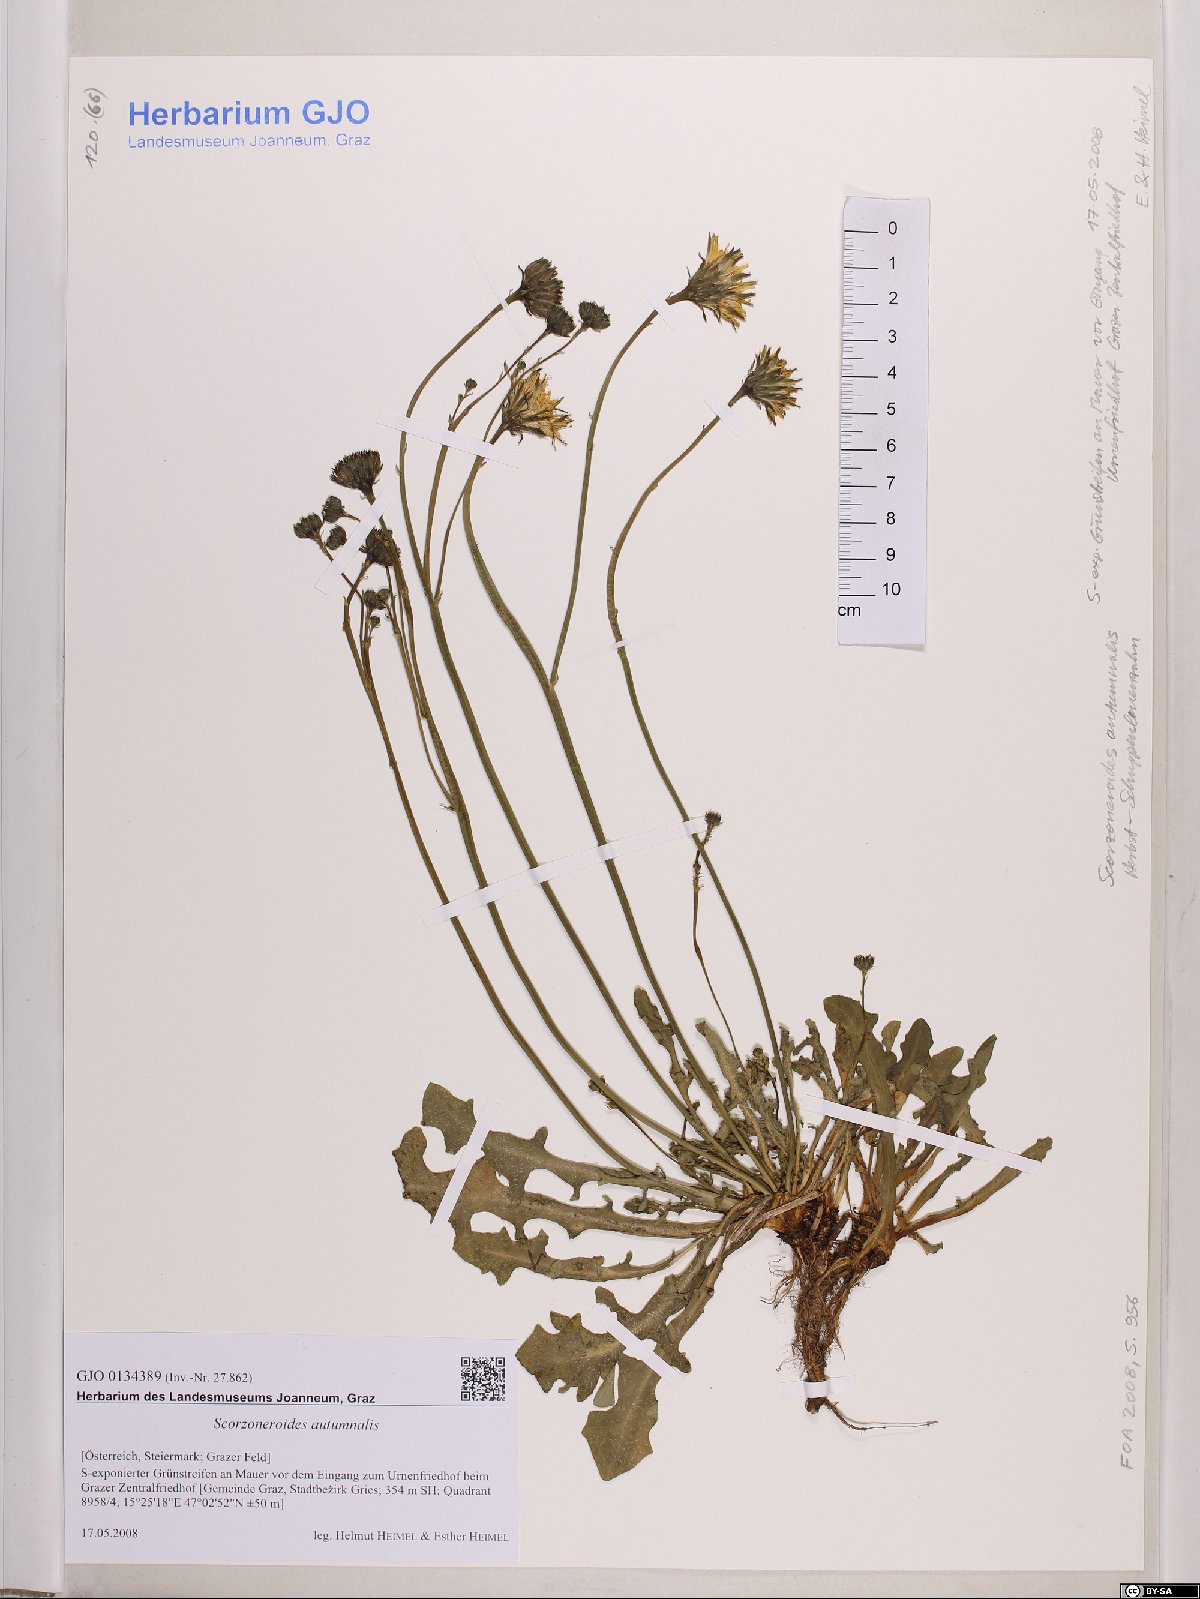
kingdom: Plantae
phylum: Tracheophyta
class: Magnoliopsida
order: Asterales
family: Asteraceae
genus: Scorzoneroides
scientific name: Scorzoneroides autumnalis
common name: Autumn hawkbit
